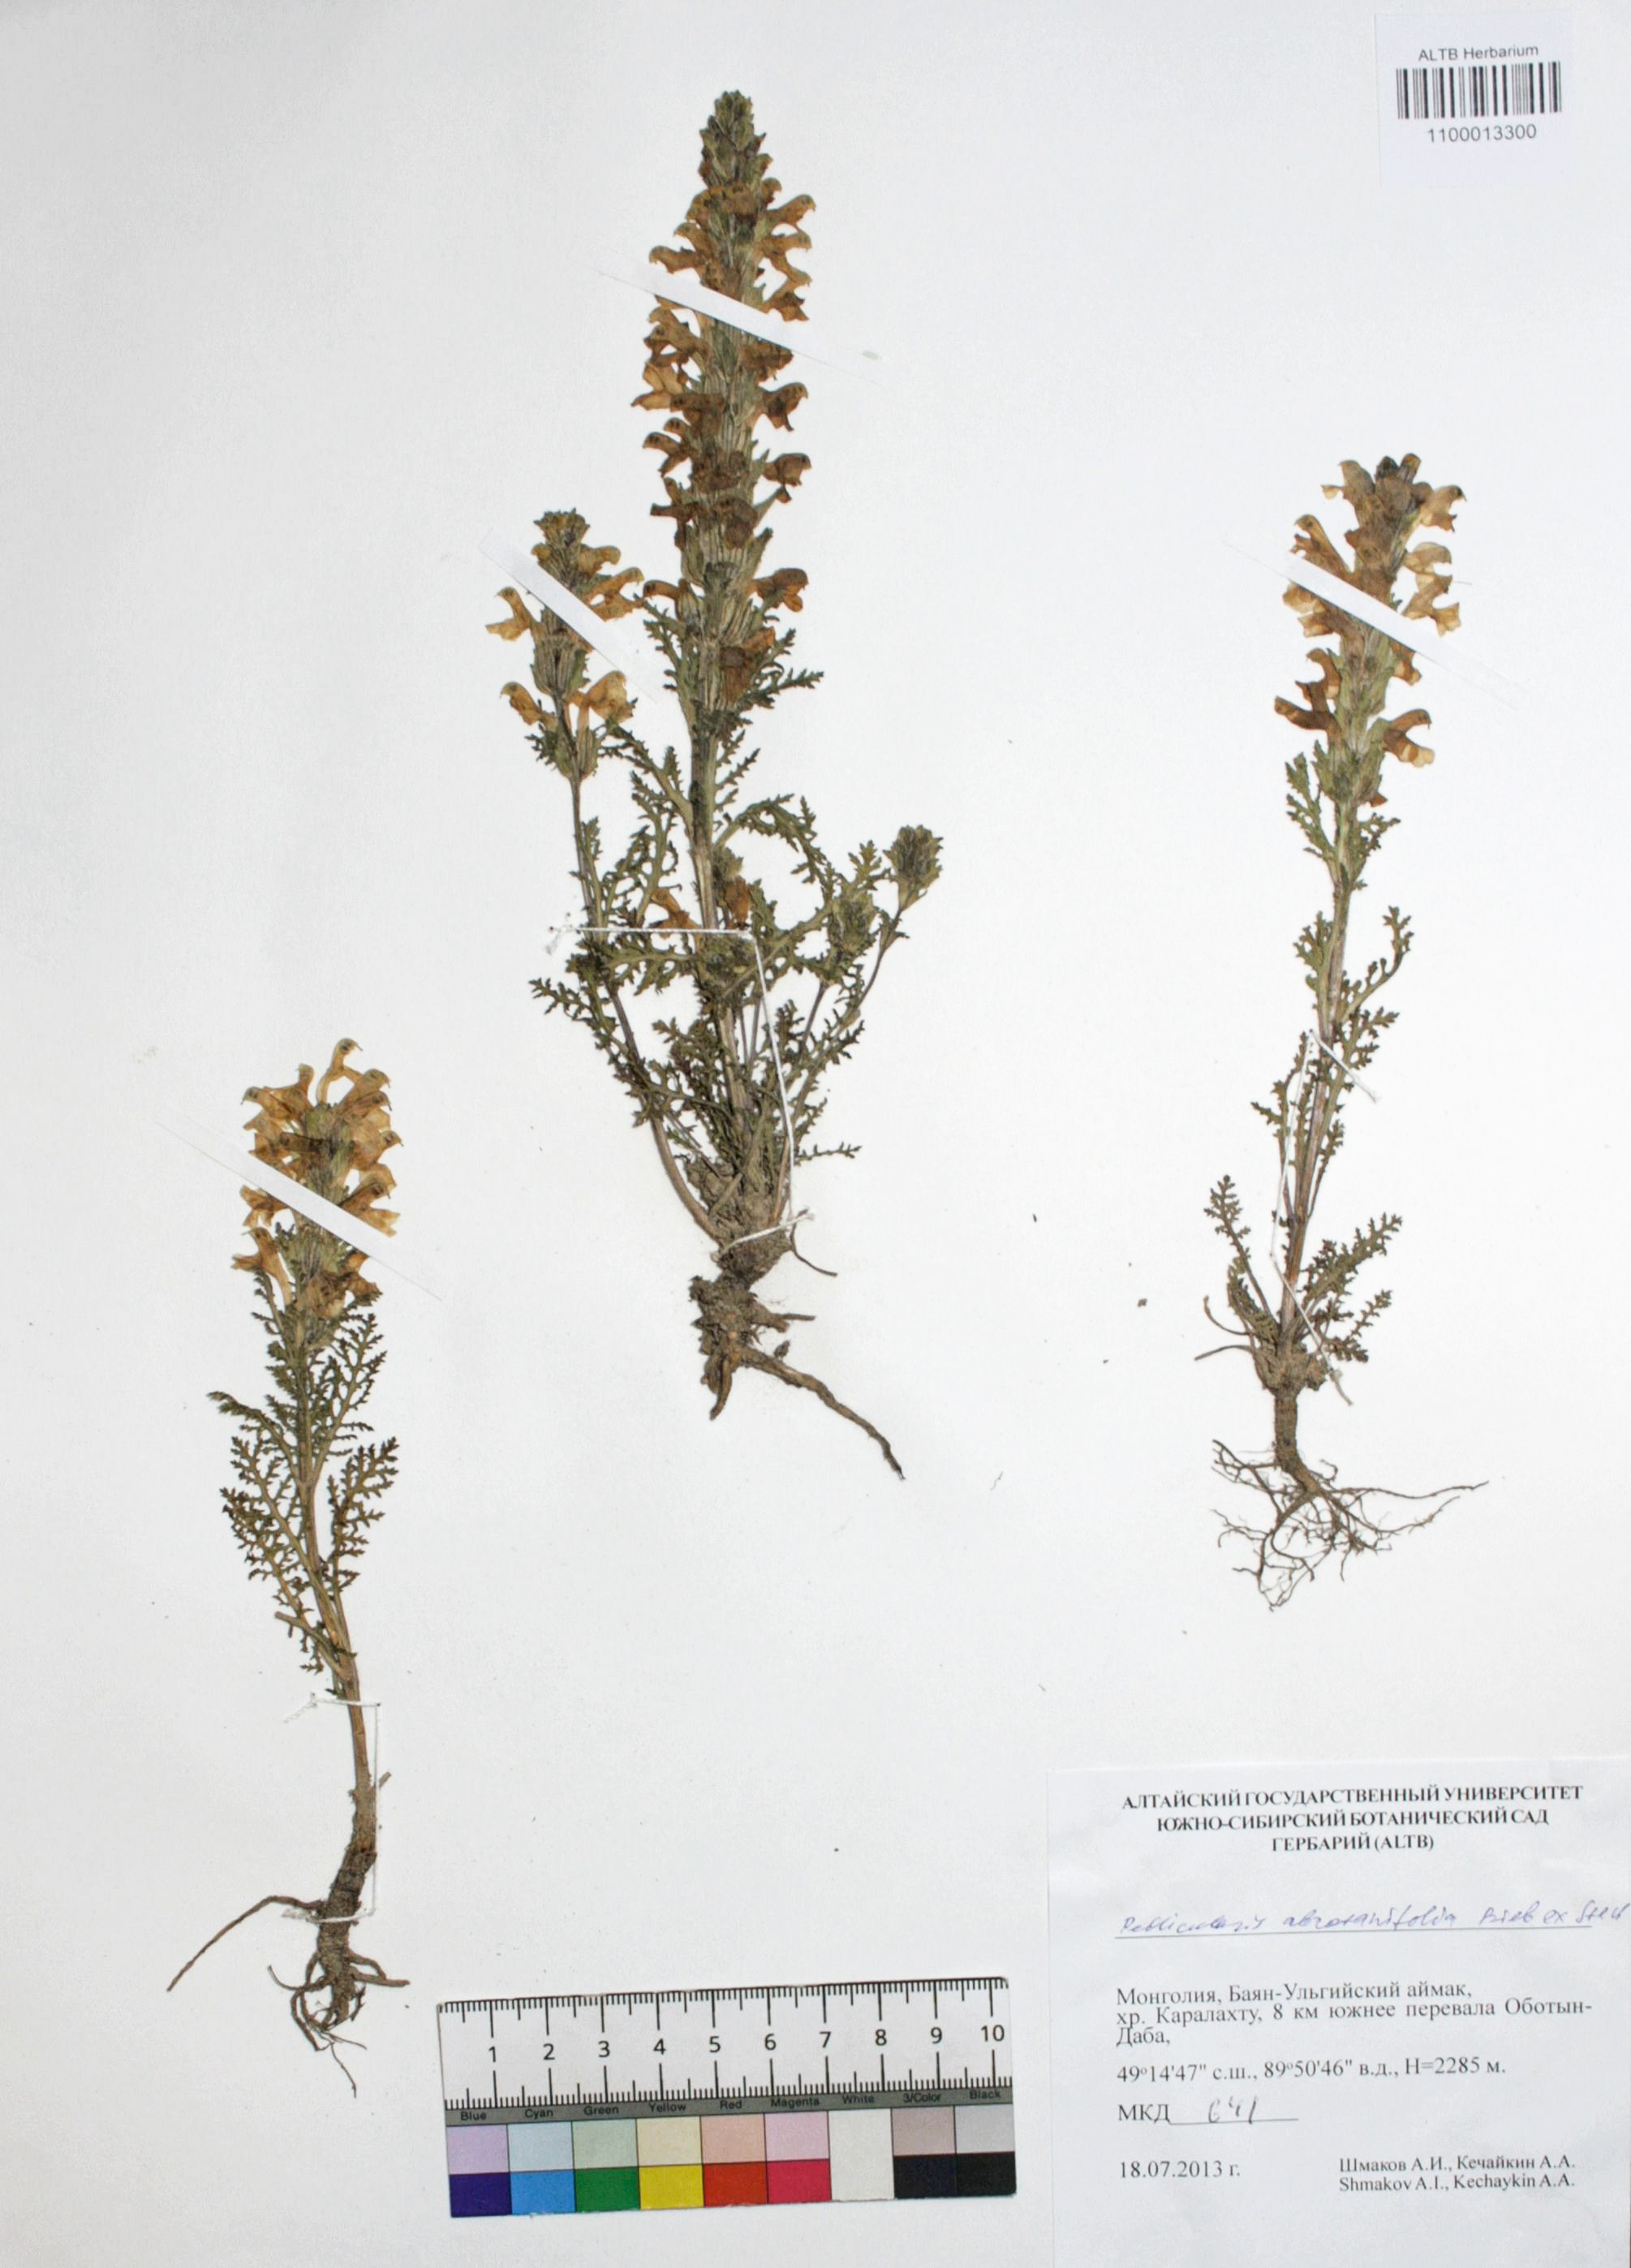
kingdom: Plantae
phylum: Tracheophyta
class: Magnoliopsida
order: Lamiales
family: Orobanchaceae
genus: Pedicularis
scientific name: Pedicularis abrotanifolia
